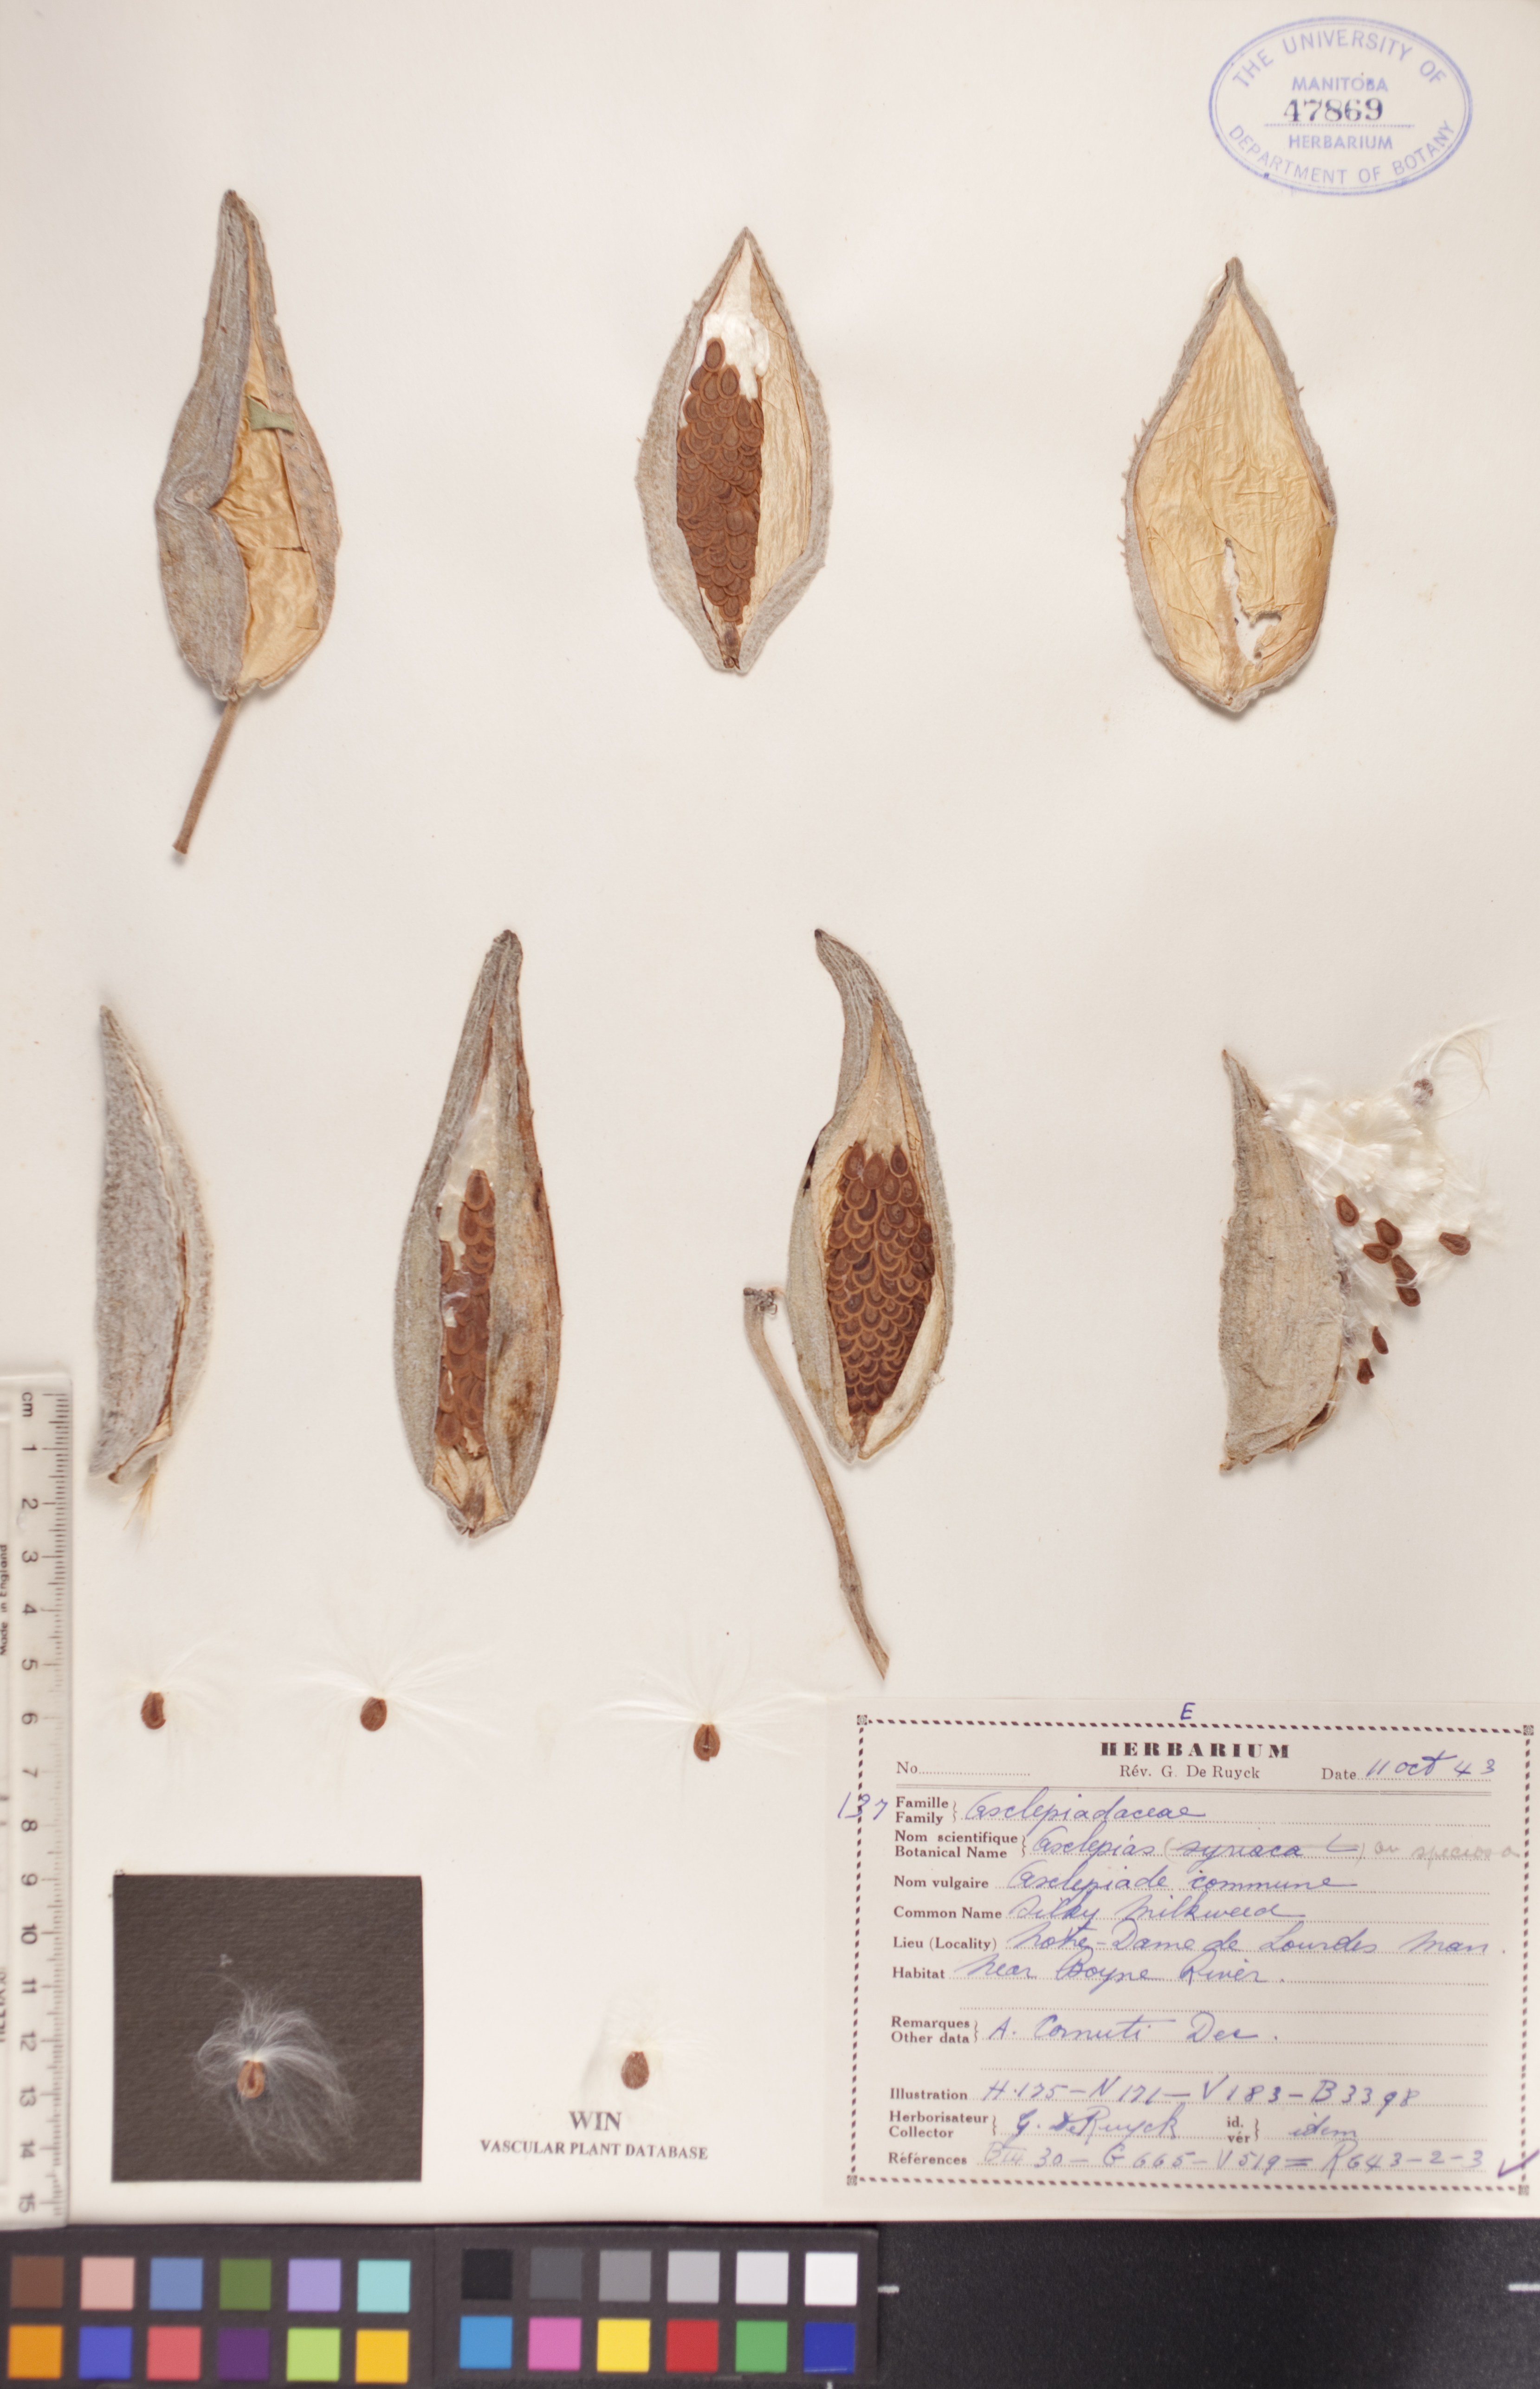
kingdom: Plantae
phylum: Tracheophyta
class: Magnoliopsida
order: Gentianales
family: Apocynaceae
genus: Asclepias
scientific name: Asclepias speciosa
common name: Showy milkweed
